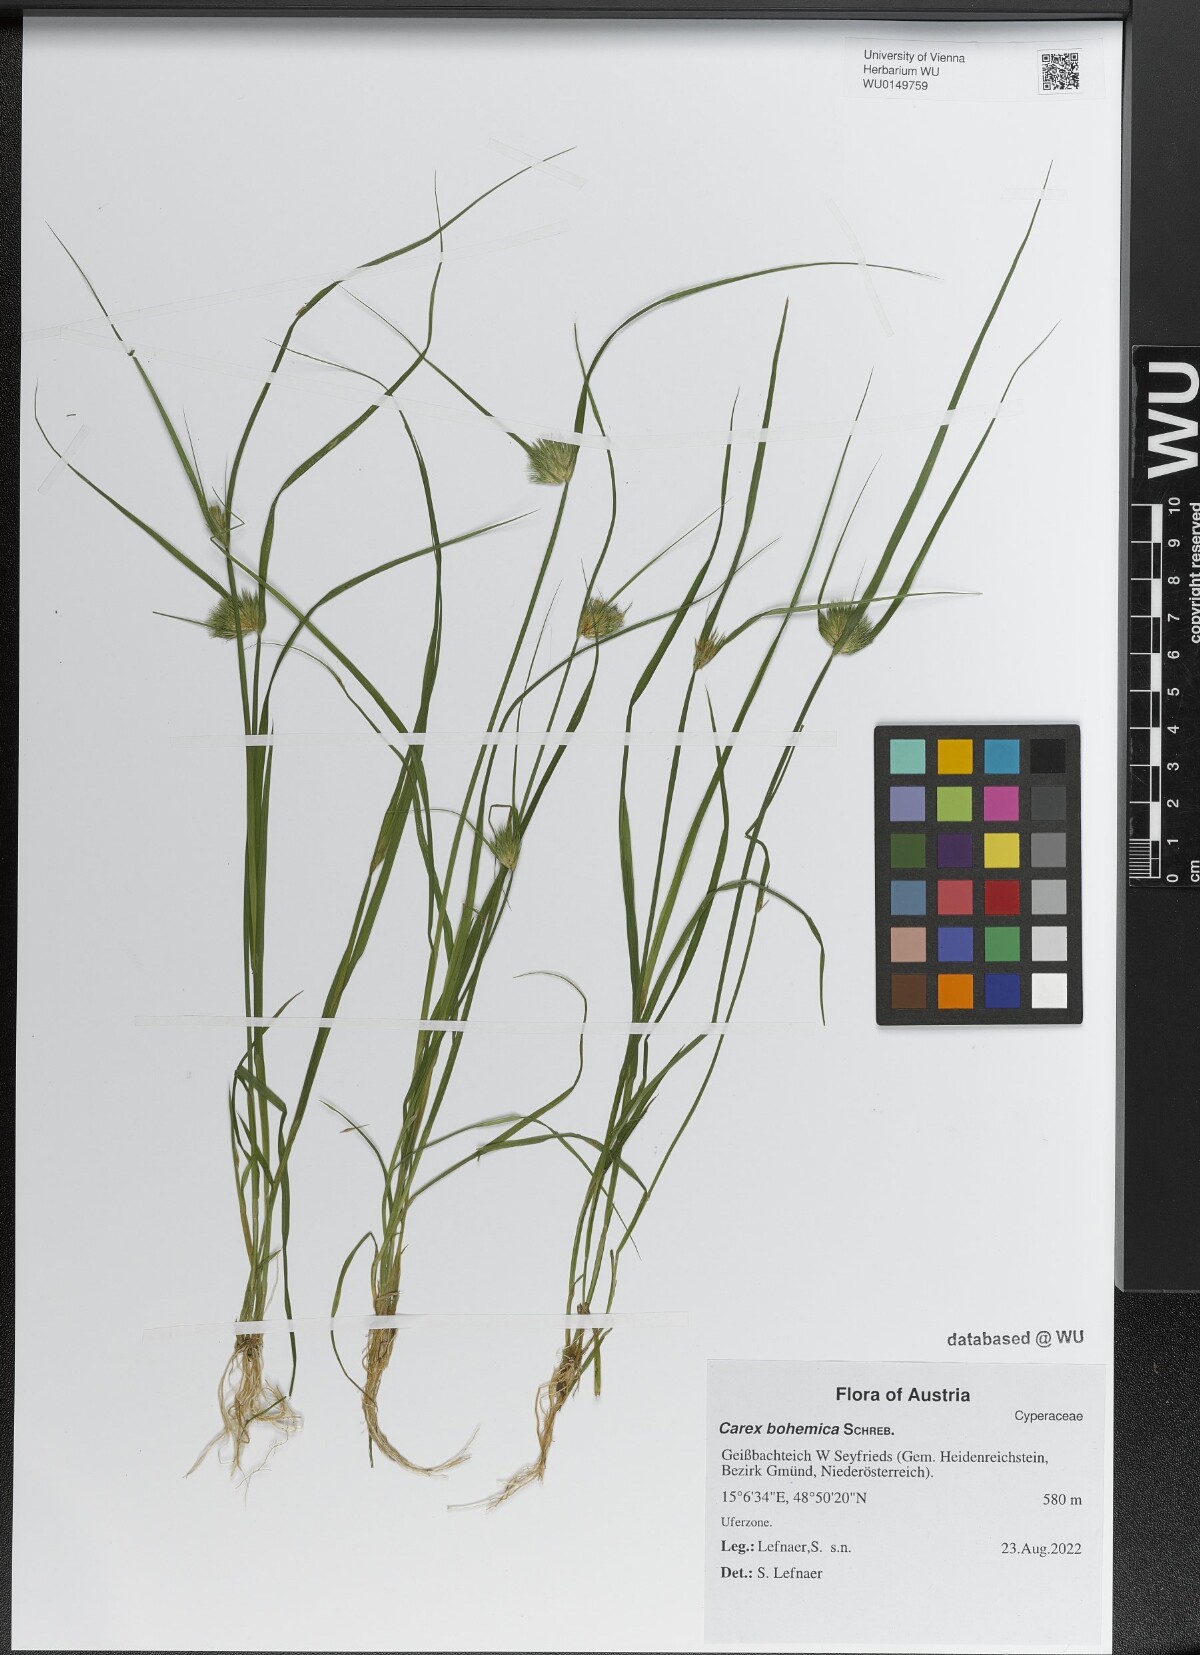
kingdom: Plantae
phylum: Tracheophyta
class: Liliopsida
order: Poales
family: Cyperaceae
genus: Carex
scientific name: Carex bohemica
